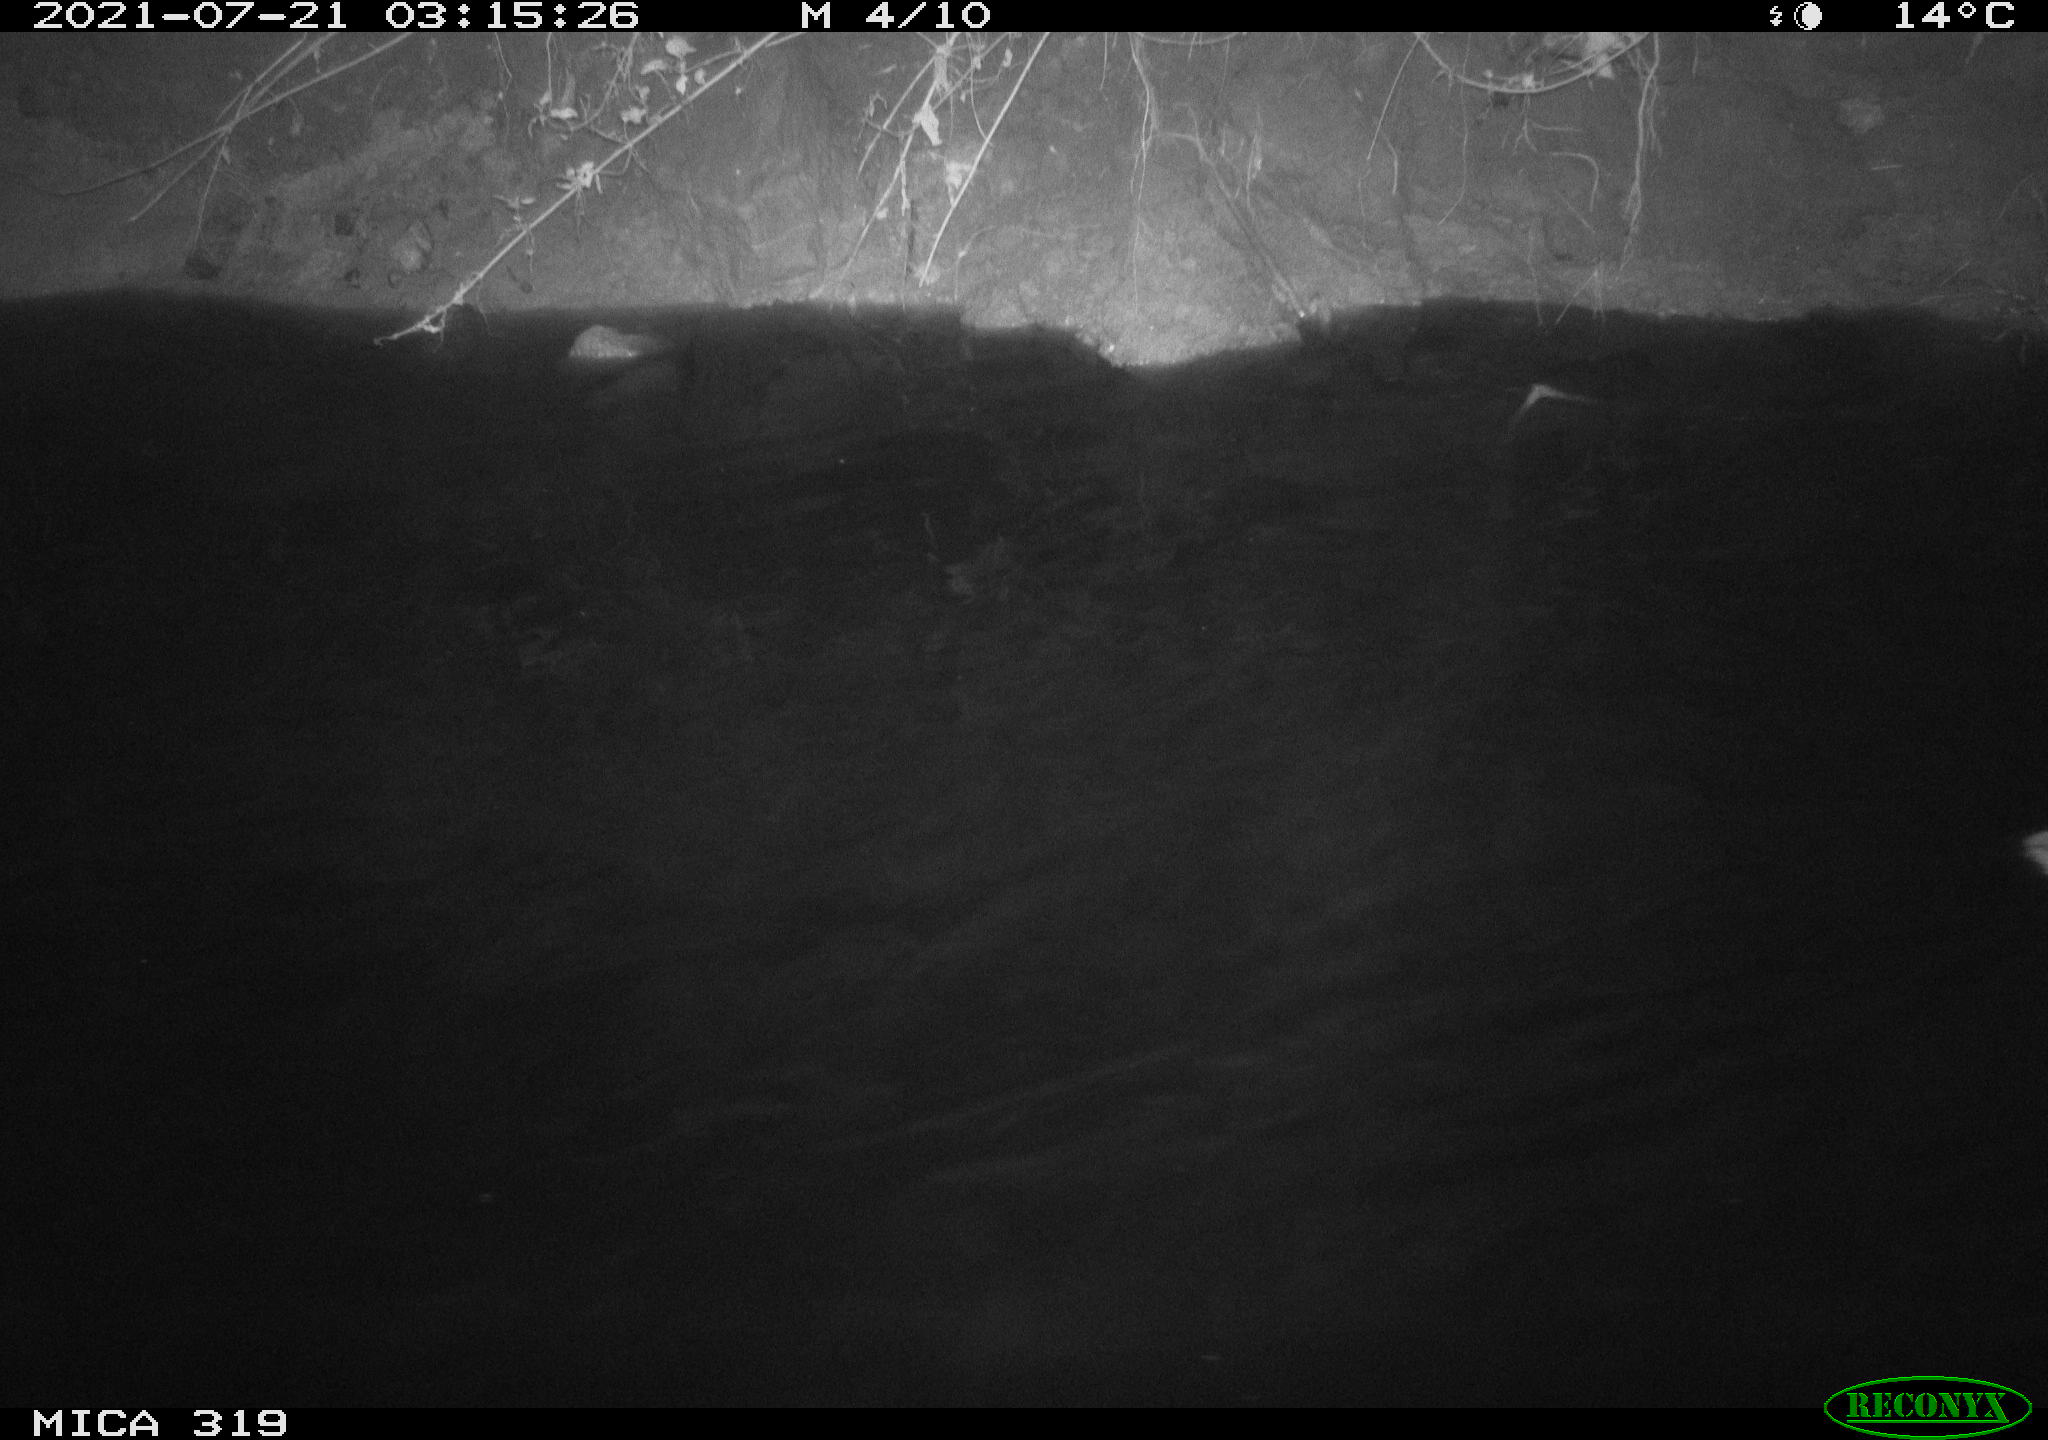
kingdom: Animalia
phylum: Chordata
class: Aves
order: Anseriformes
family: Anatidae
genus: Anas
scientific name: Anas platyrhynchos
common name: Mallard
